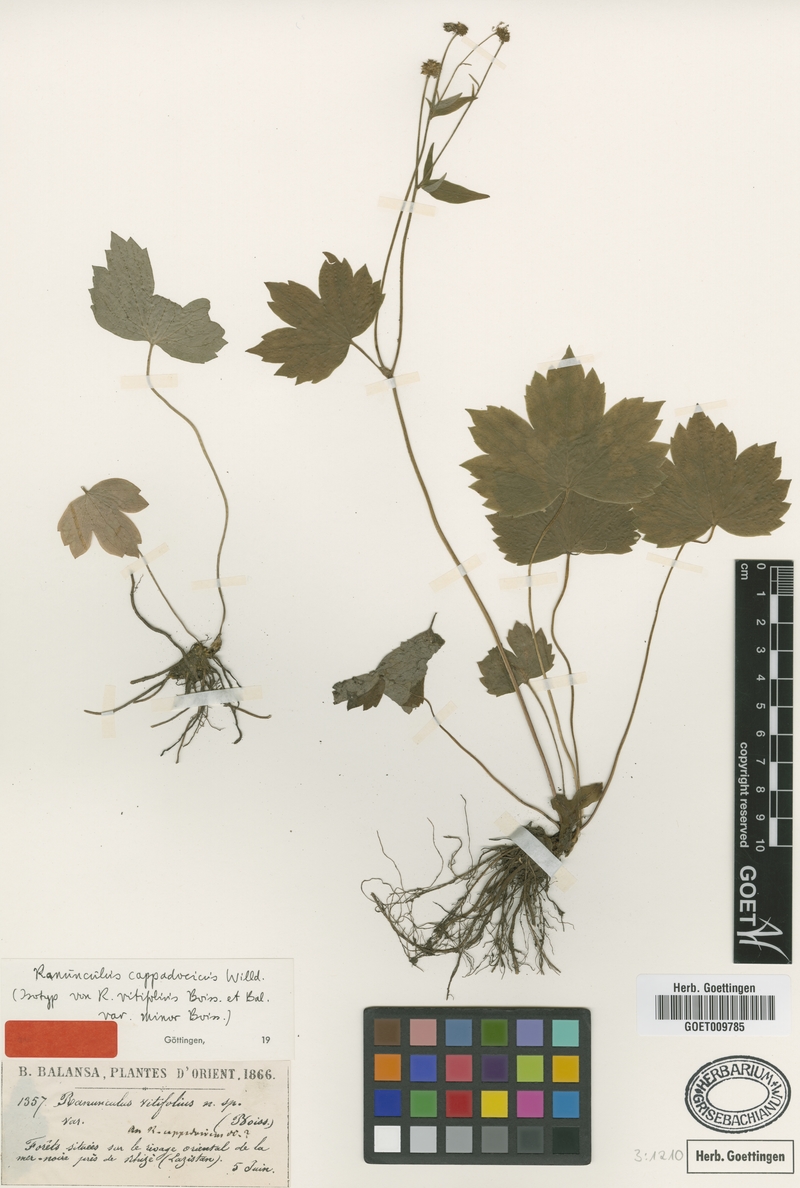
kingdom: Plantae
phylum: Tracheophyta
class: Magnoliopsida
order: Ranunculales
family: Ranunculaceae
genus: Ranunculus
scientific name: Ranunculus cappadocicus
